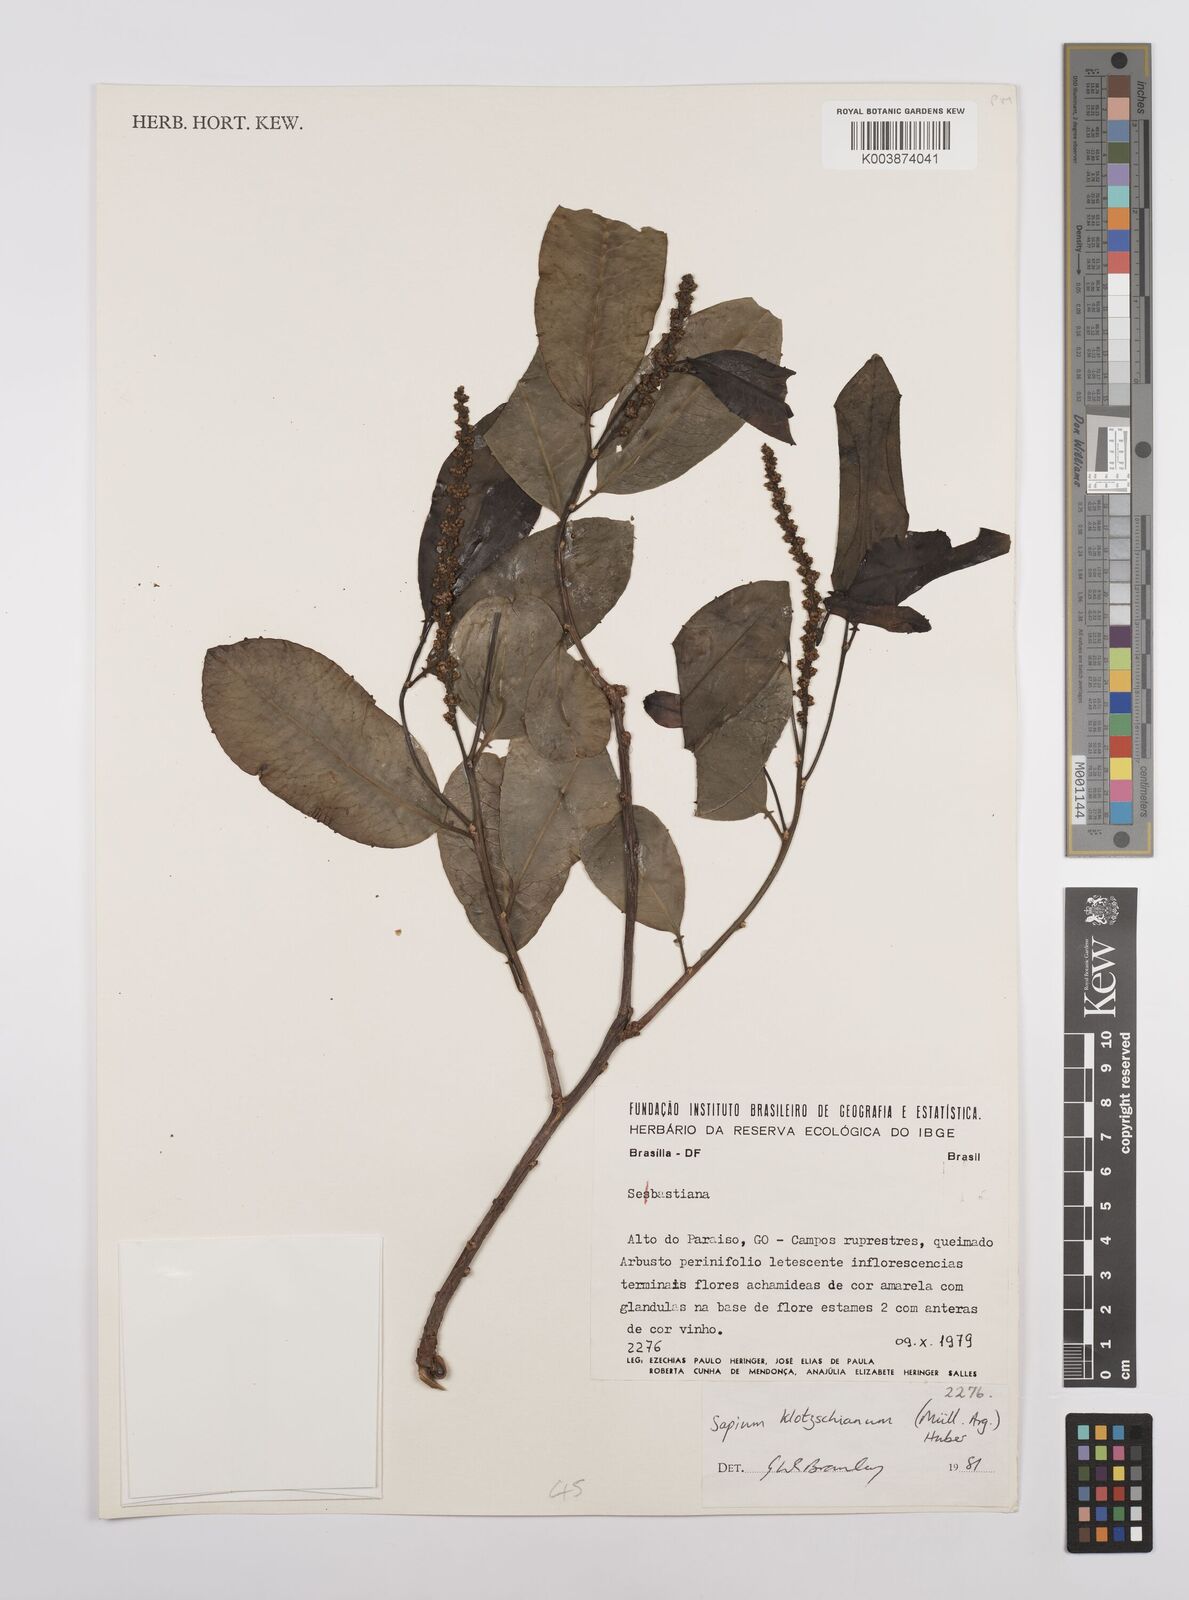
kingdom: Plantae
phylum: Tracheophyta
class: Magnoliopsida
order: Malpighiales
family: Euphorbiaceae
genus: Sapium
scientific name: Sapium glandulosum
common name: Milktree
